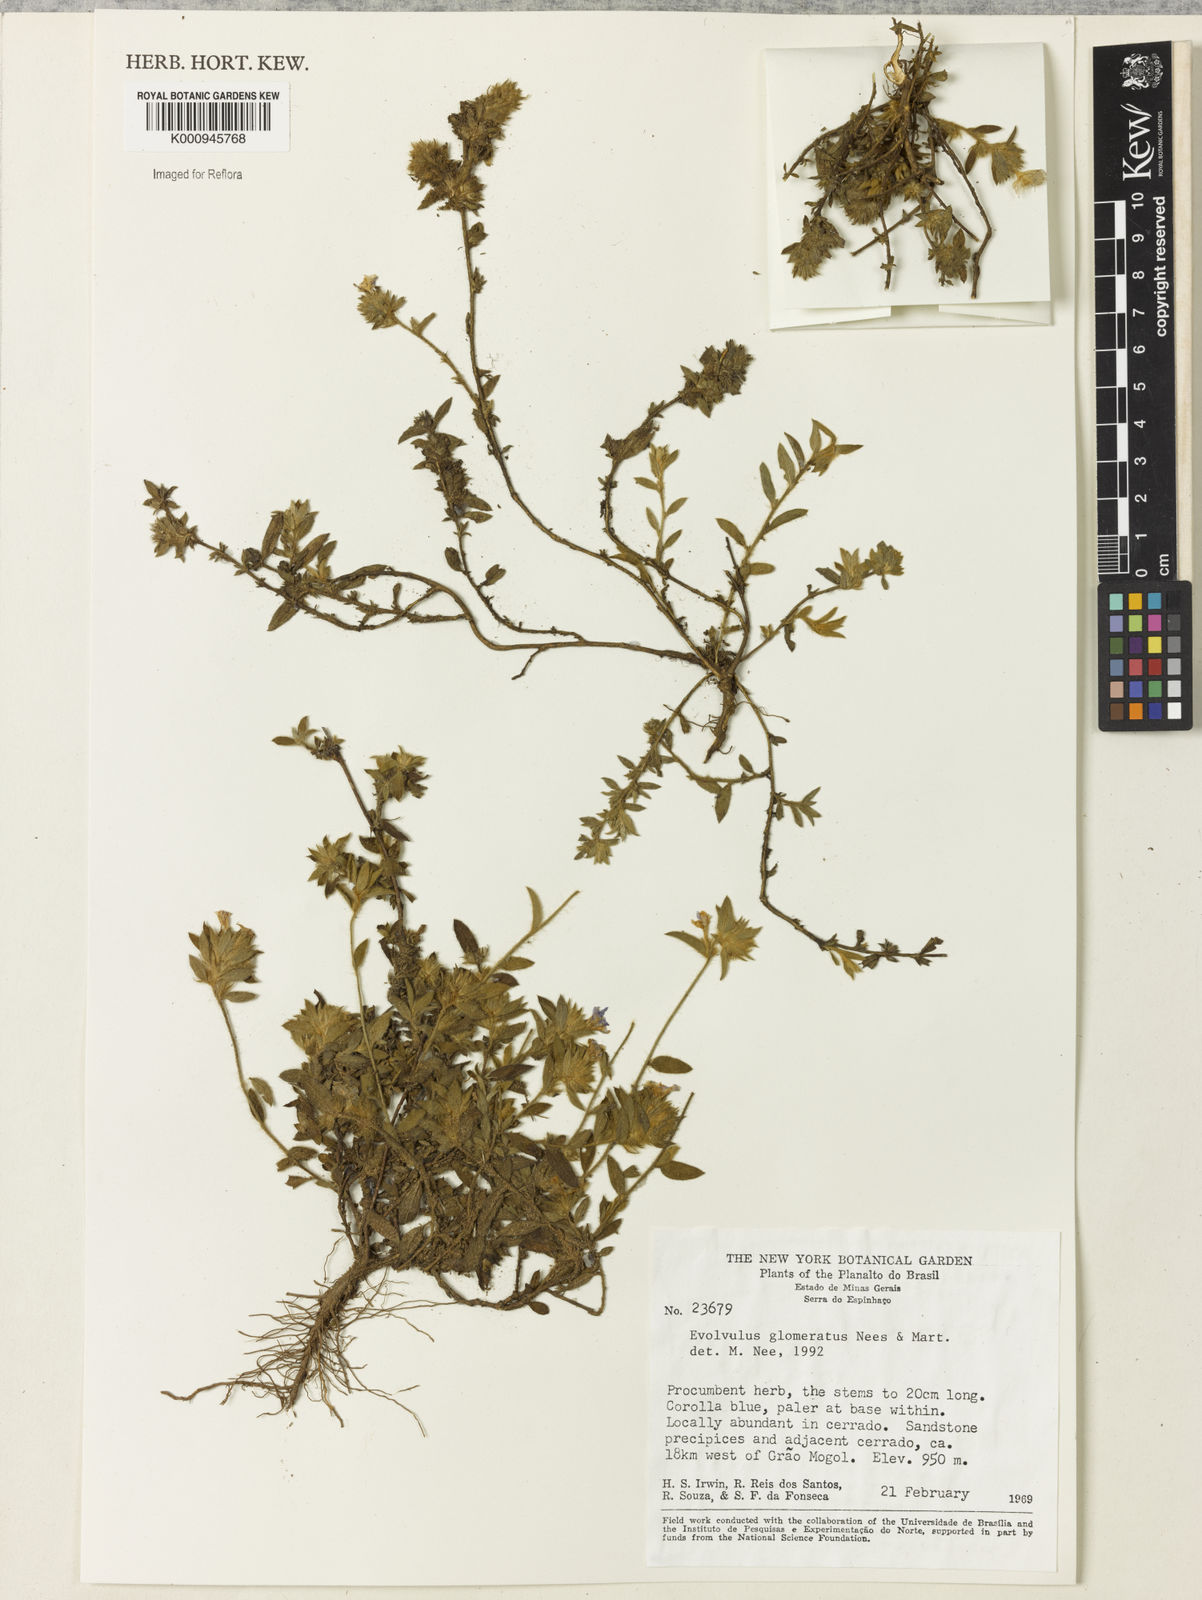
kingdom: Plantae
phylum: Tracheophyta
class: Magnoliopsida
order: Solanales
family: Convolvulaceae
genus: Evolvulus
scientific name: Evolvulus glomeratus
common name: Brazilian dwarf morning-glory
